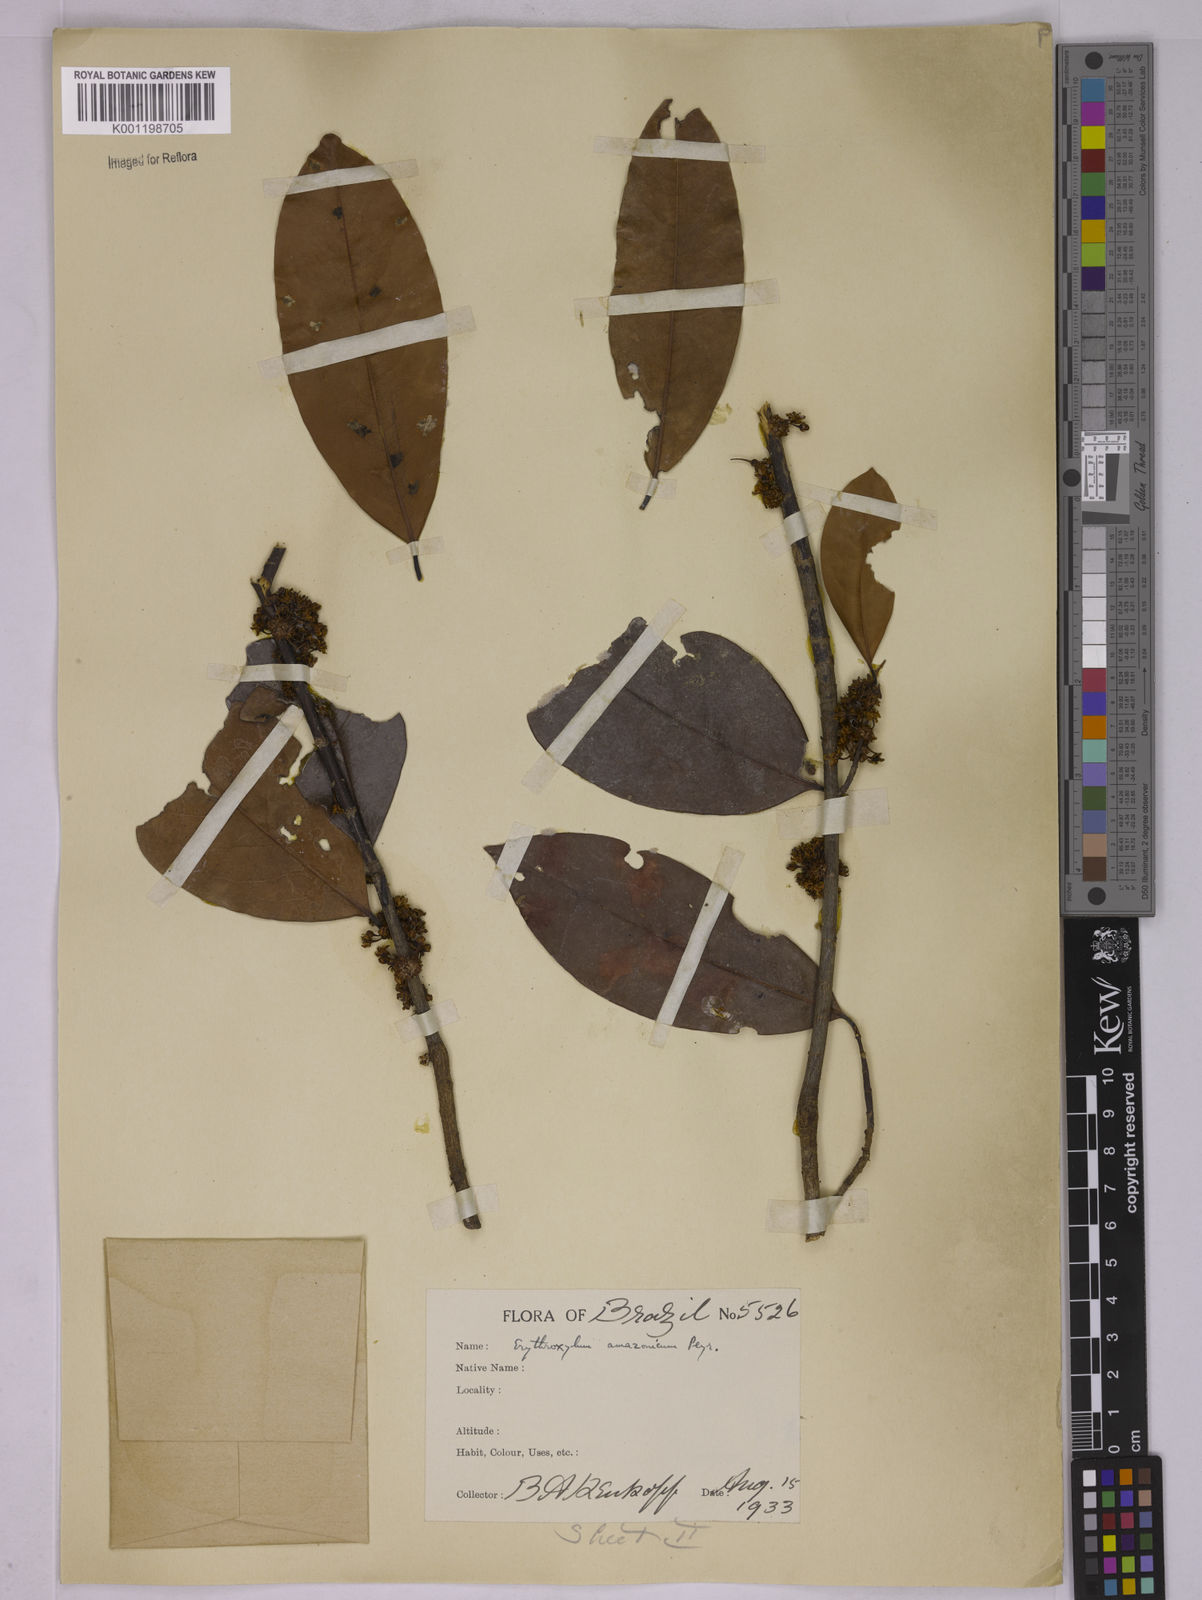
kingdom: Plantae
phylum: Tracheophyta
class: Magnoliopsida
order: Malpighiales
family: Erythroxylaceae
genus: Erythroxylum
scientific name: Erythroxylum amazonicum
